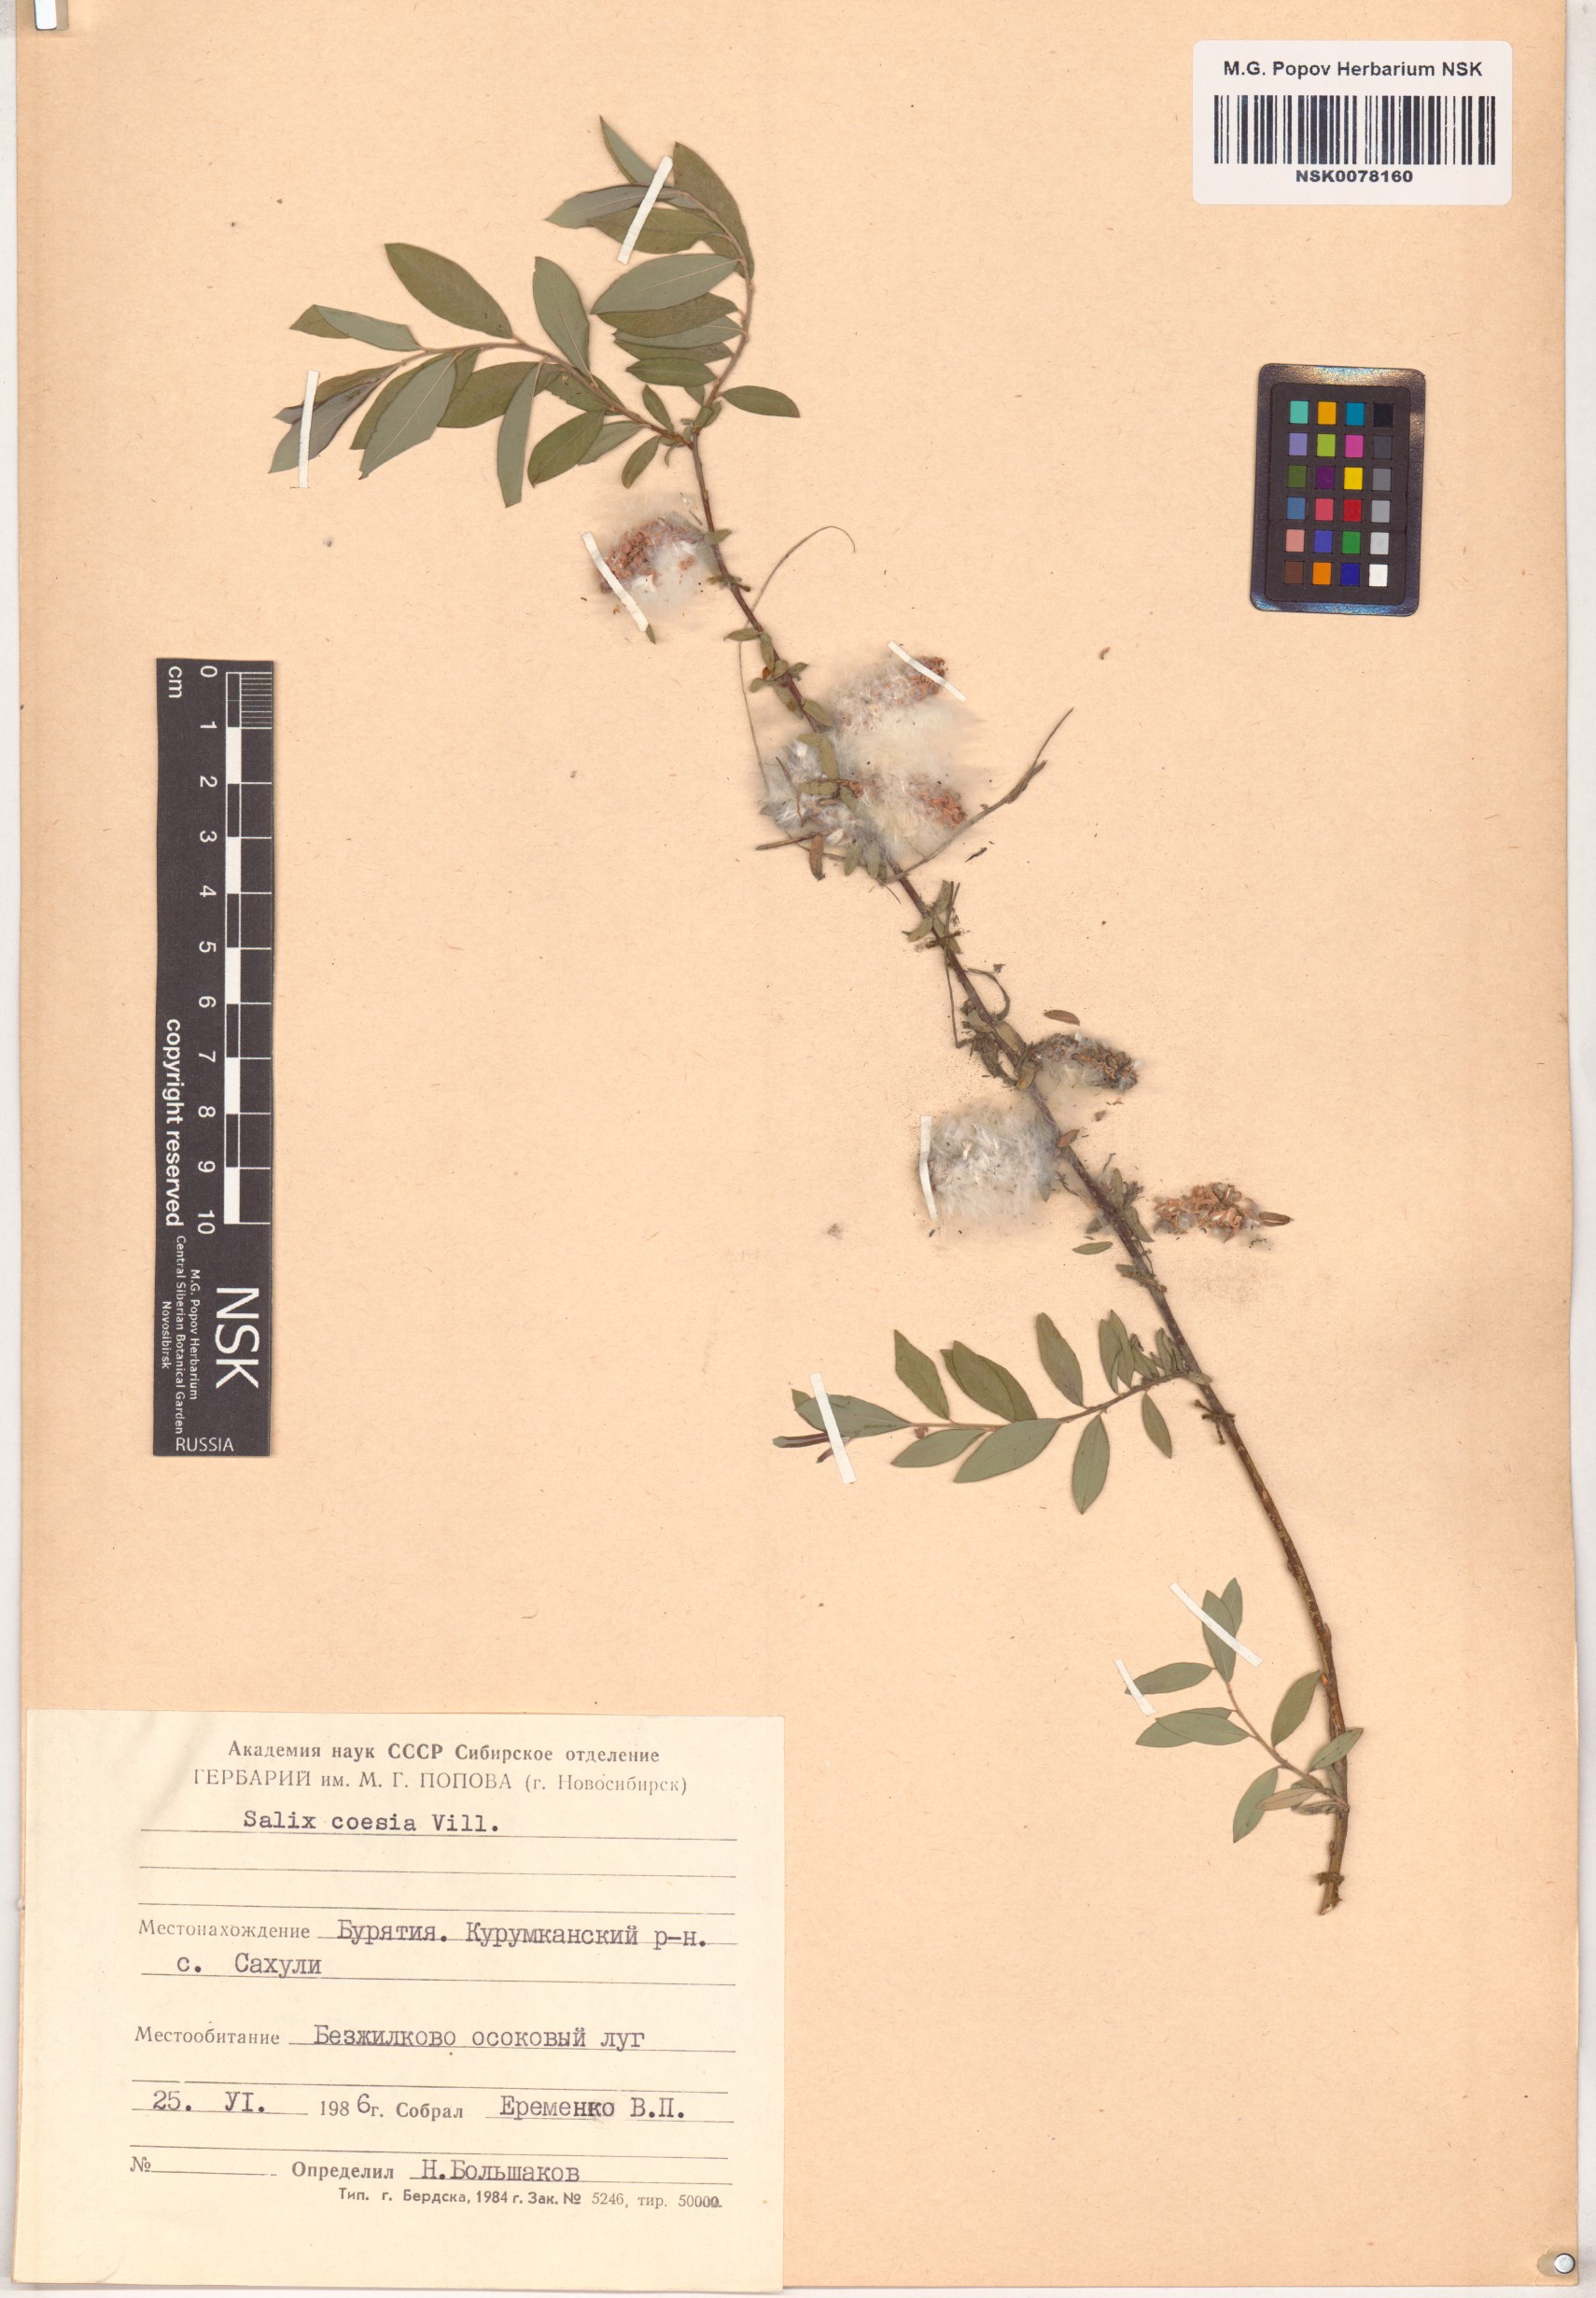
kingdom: Plantae
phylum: Tracheophyta
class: Magnoliopsida
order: Malpighiales
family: Salicaceae
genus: Salix
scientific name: Salix caesia
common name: Blue willow
